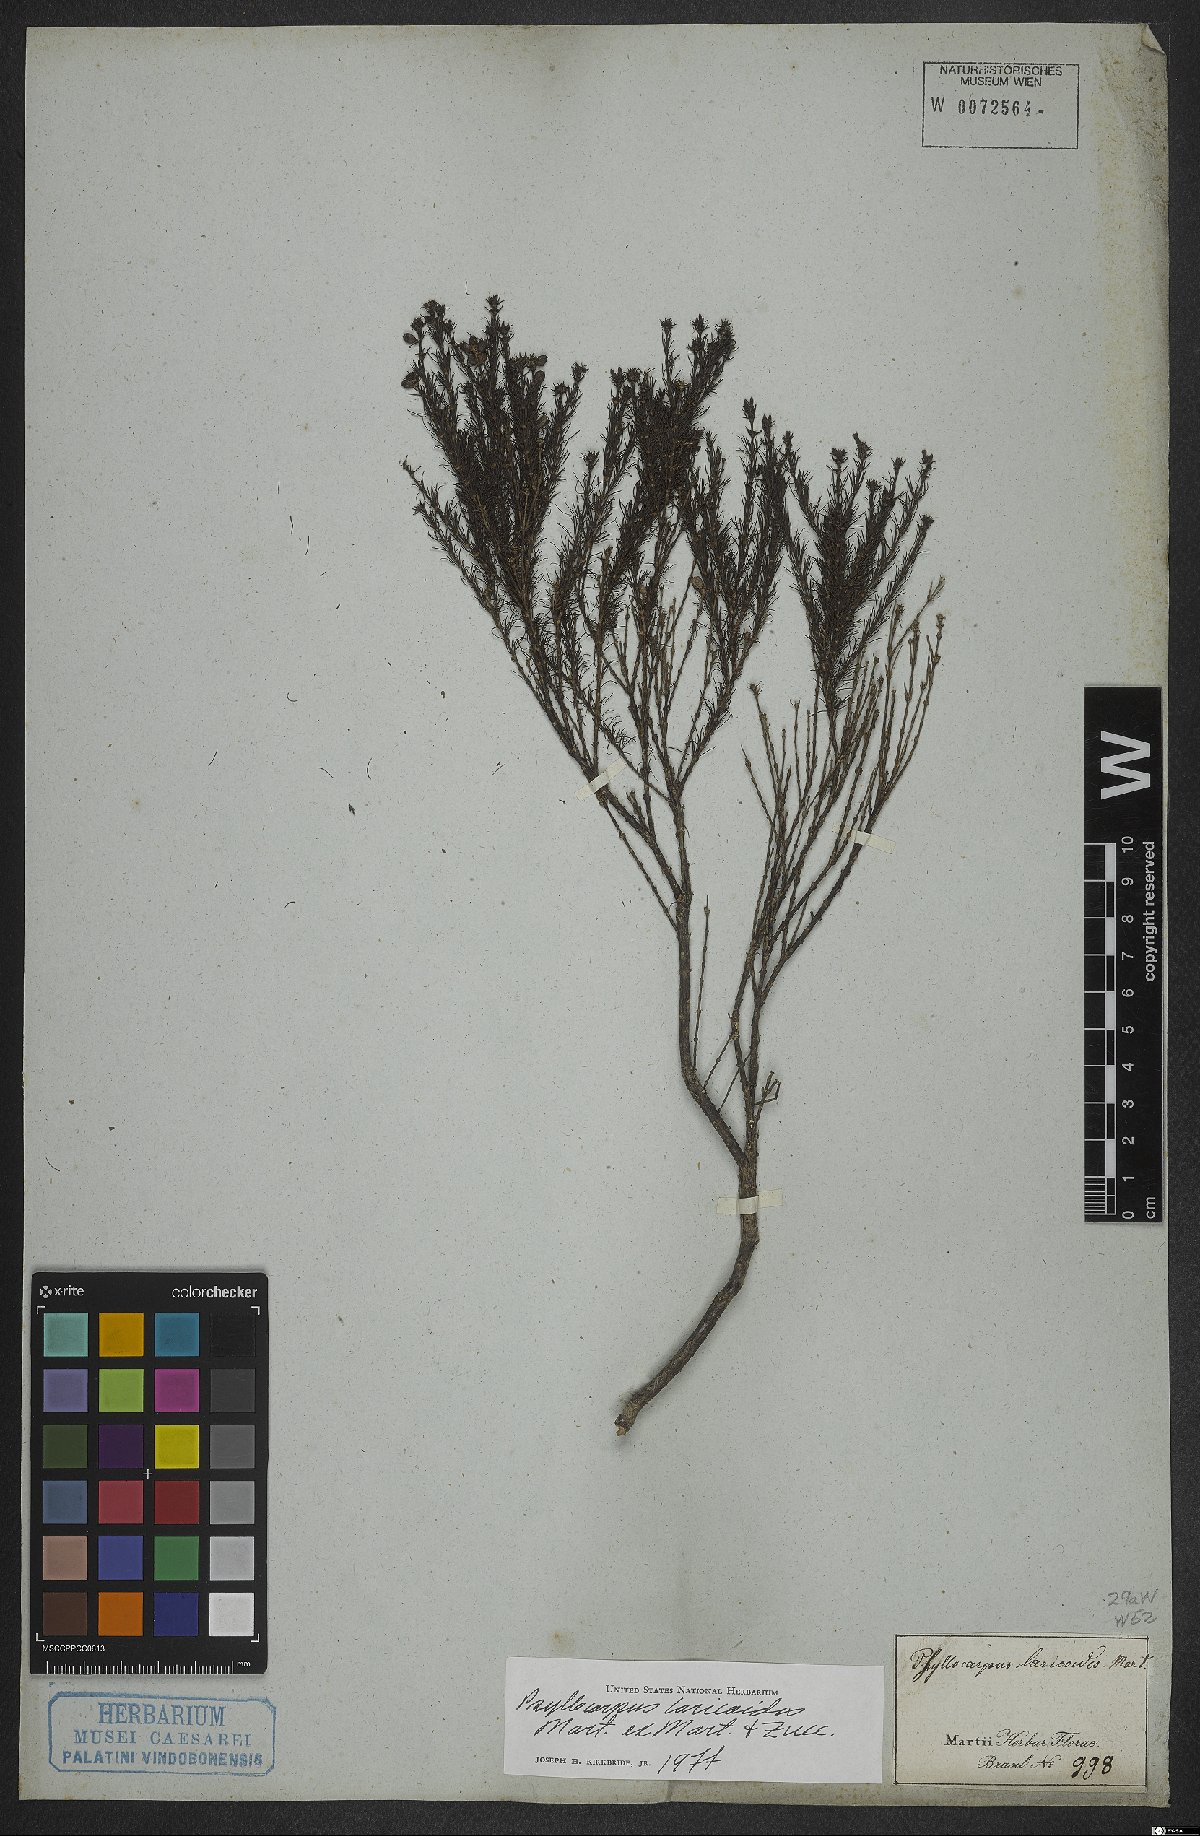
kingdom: Plantae
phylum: Tracheophyta
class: Magnoliopsida
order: Gentianales
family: Rubiaceae
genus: Psyllocarpus
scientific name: Psyllocarpus laricoides
